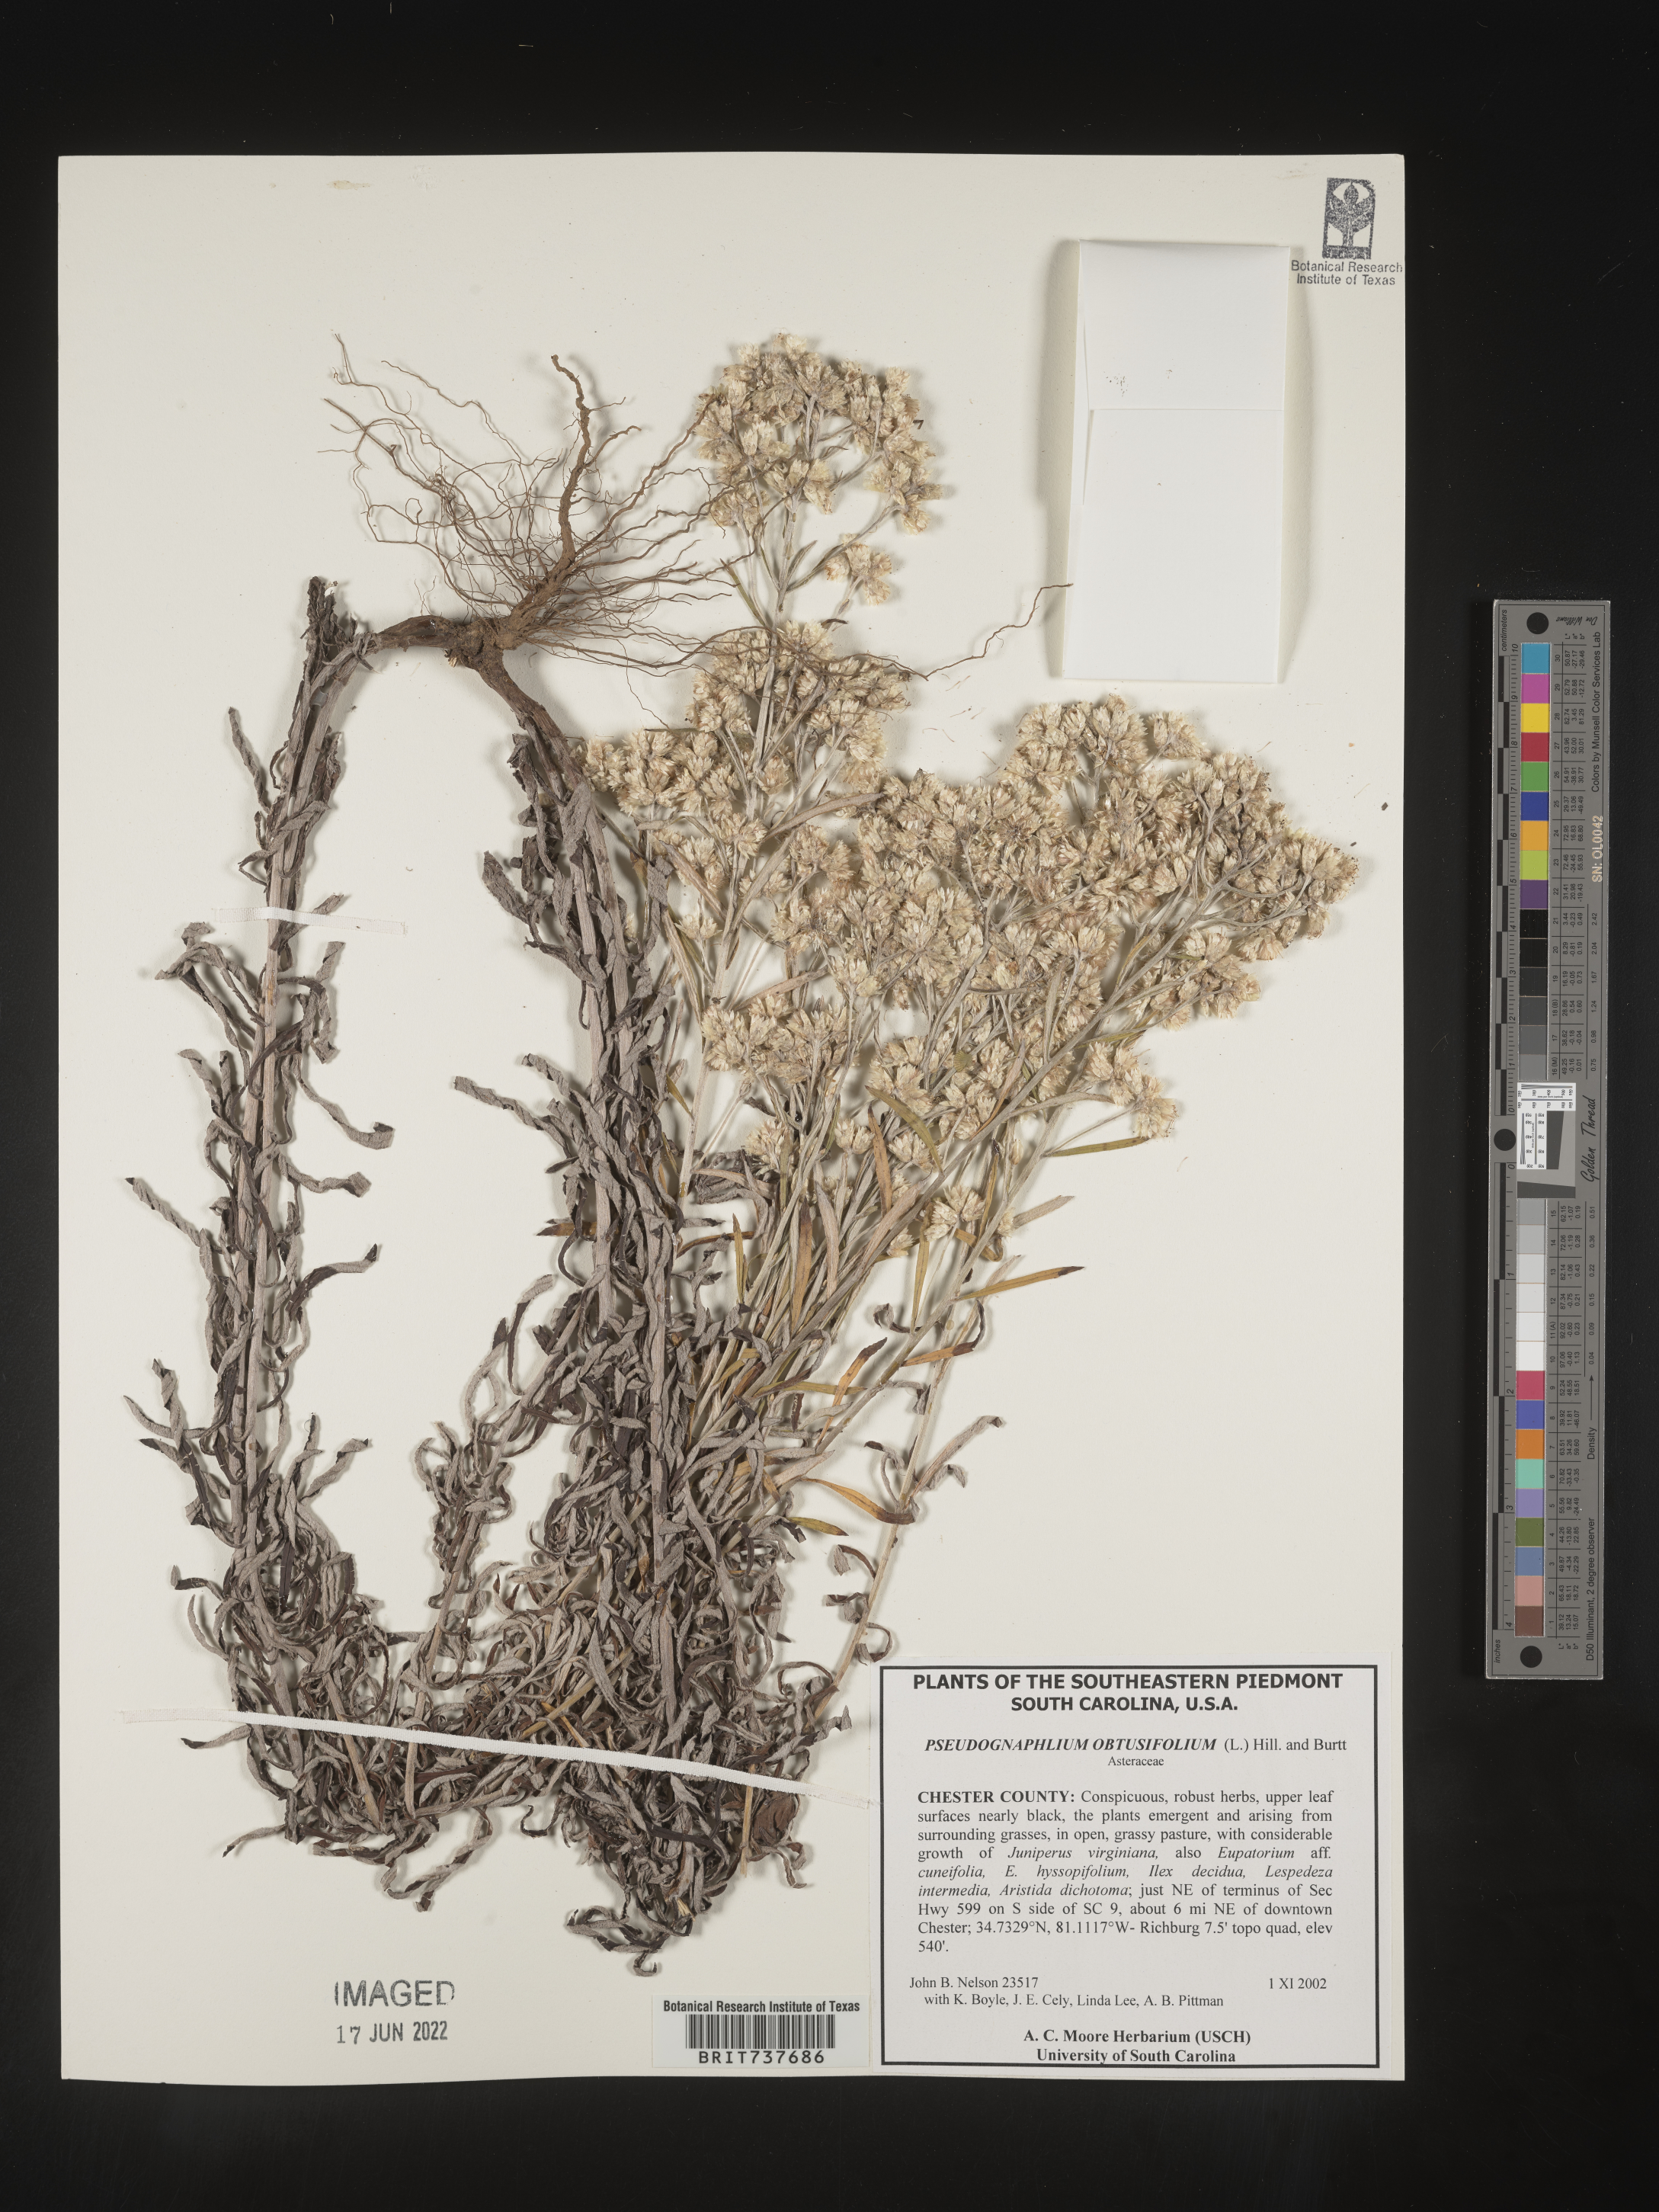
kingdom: Plantae
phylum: Tracheophyta
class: Magnoliopsida
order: Asterales
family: Asteraceae
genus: Pseudognaphalium
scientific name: Pseudognaphalium obtusifolium
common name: Eastern rabbit-tobacco
